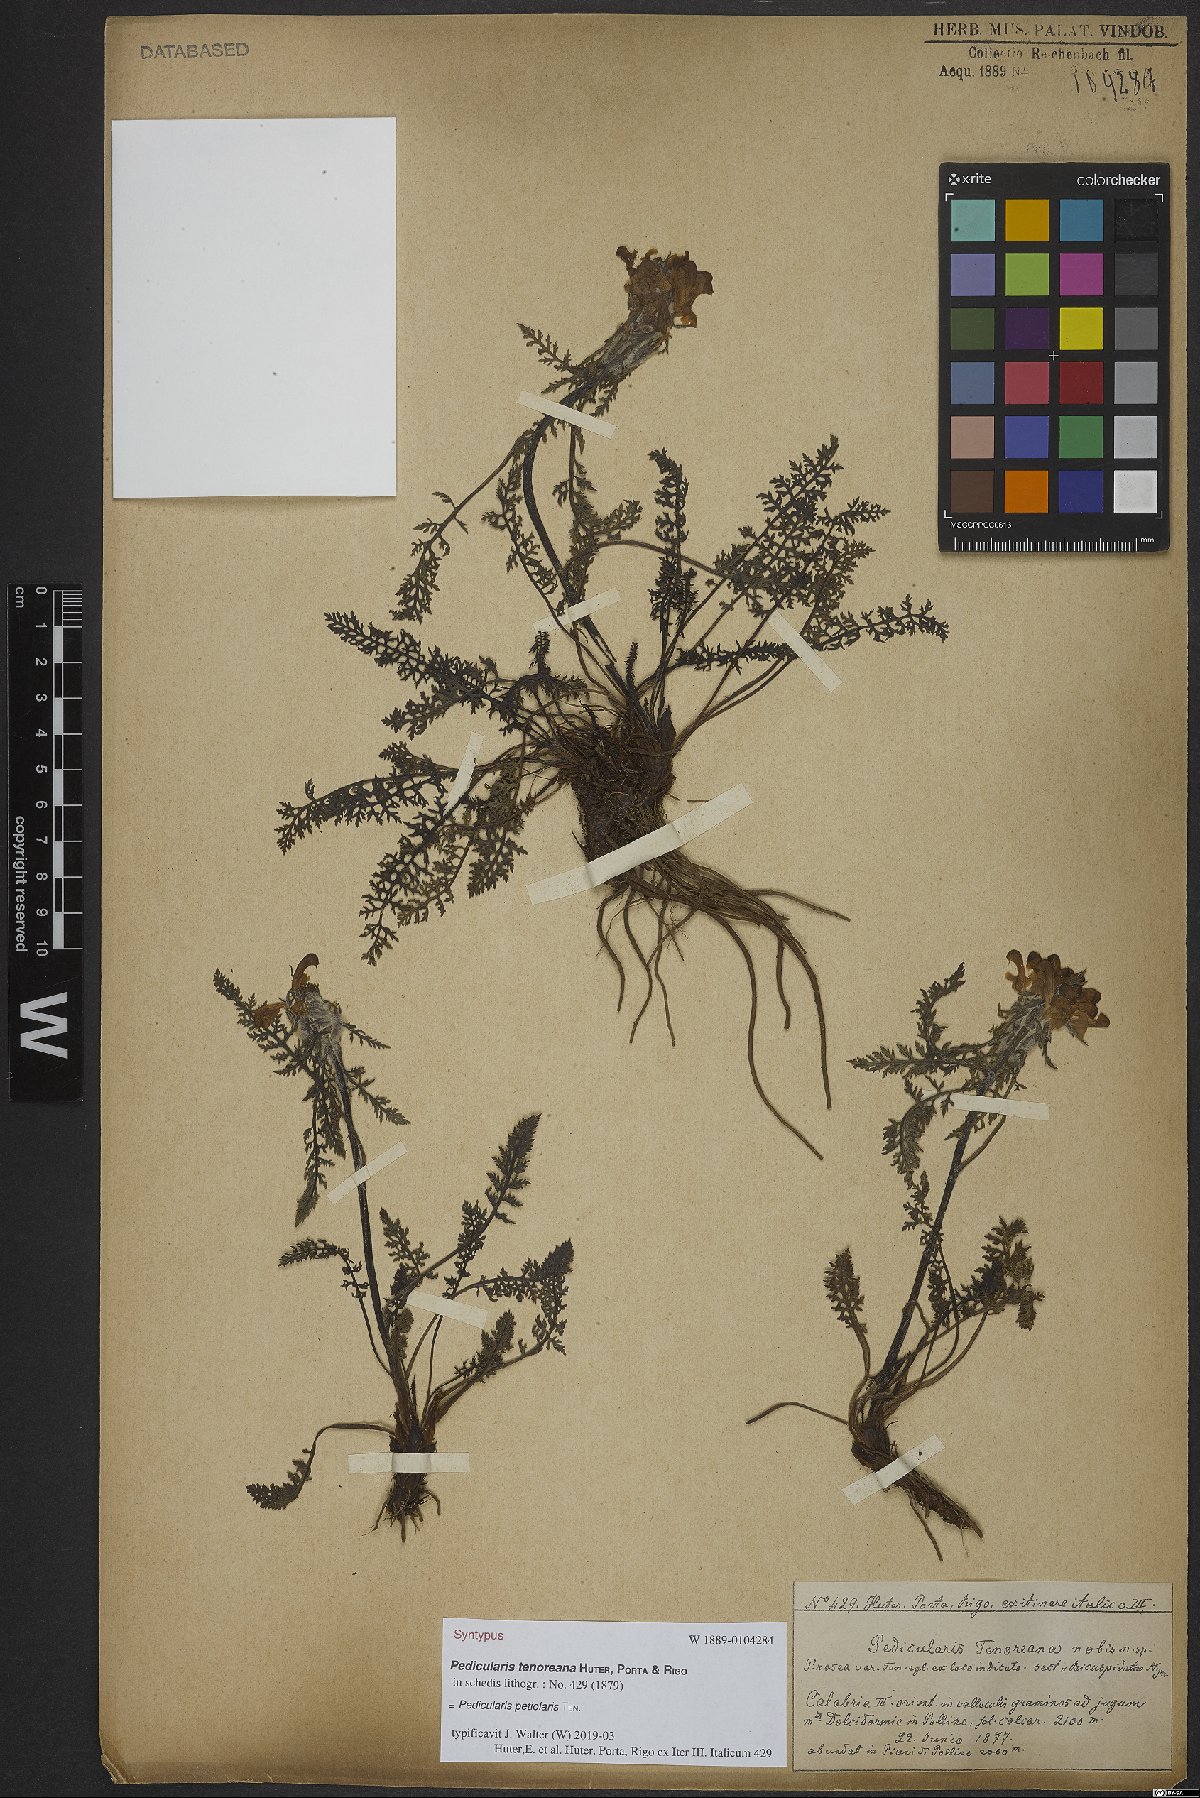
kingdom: Plantae
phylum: Tracheophyta
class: Magnoliopsida
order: Lamiales
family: Orobanchaceae
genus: Pedicularis
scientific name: Pedicularis petiolaris
